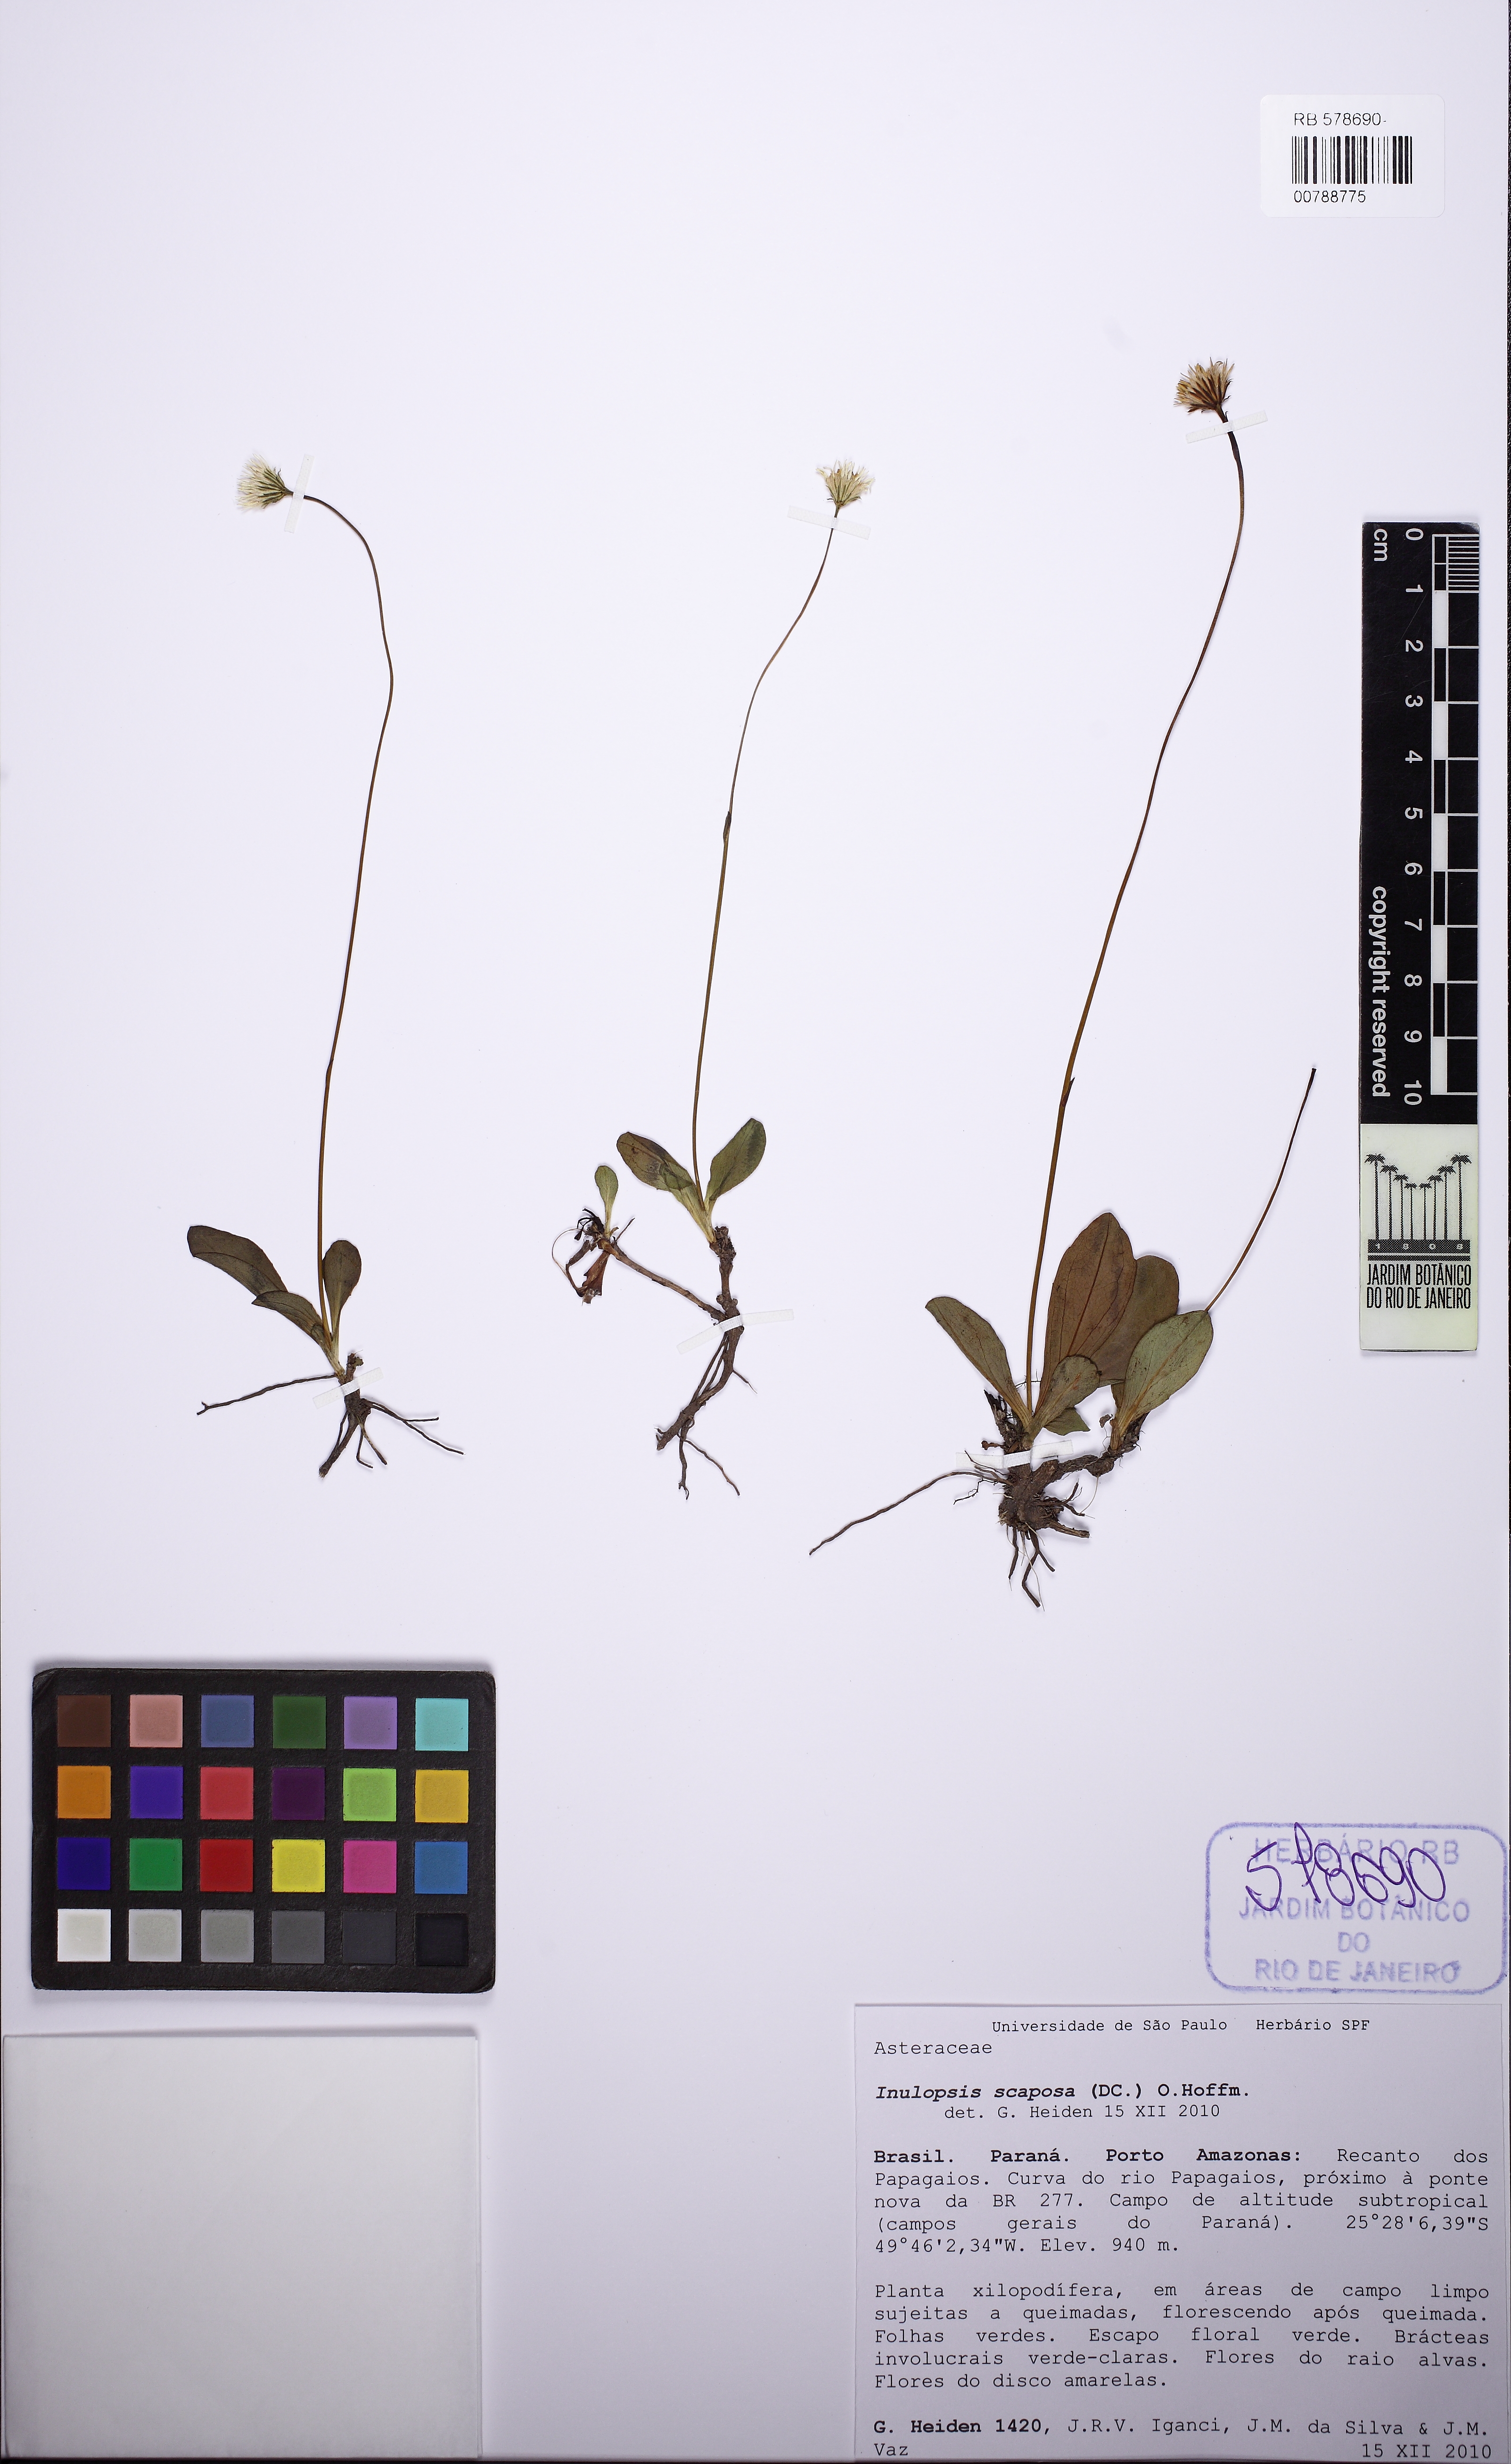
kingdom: Plantae
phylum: Tracheophyta
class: Magnoliopsida
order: Asterales
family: Asteraceae
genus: Inulopsis
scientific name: Inulopsis scaposa
